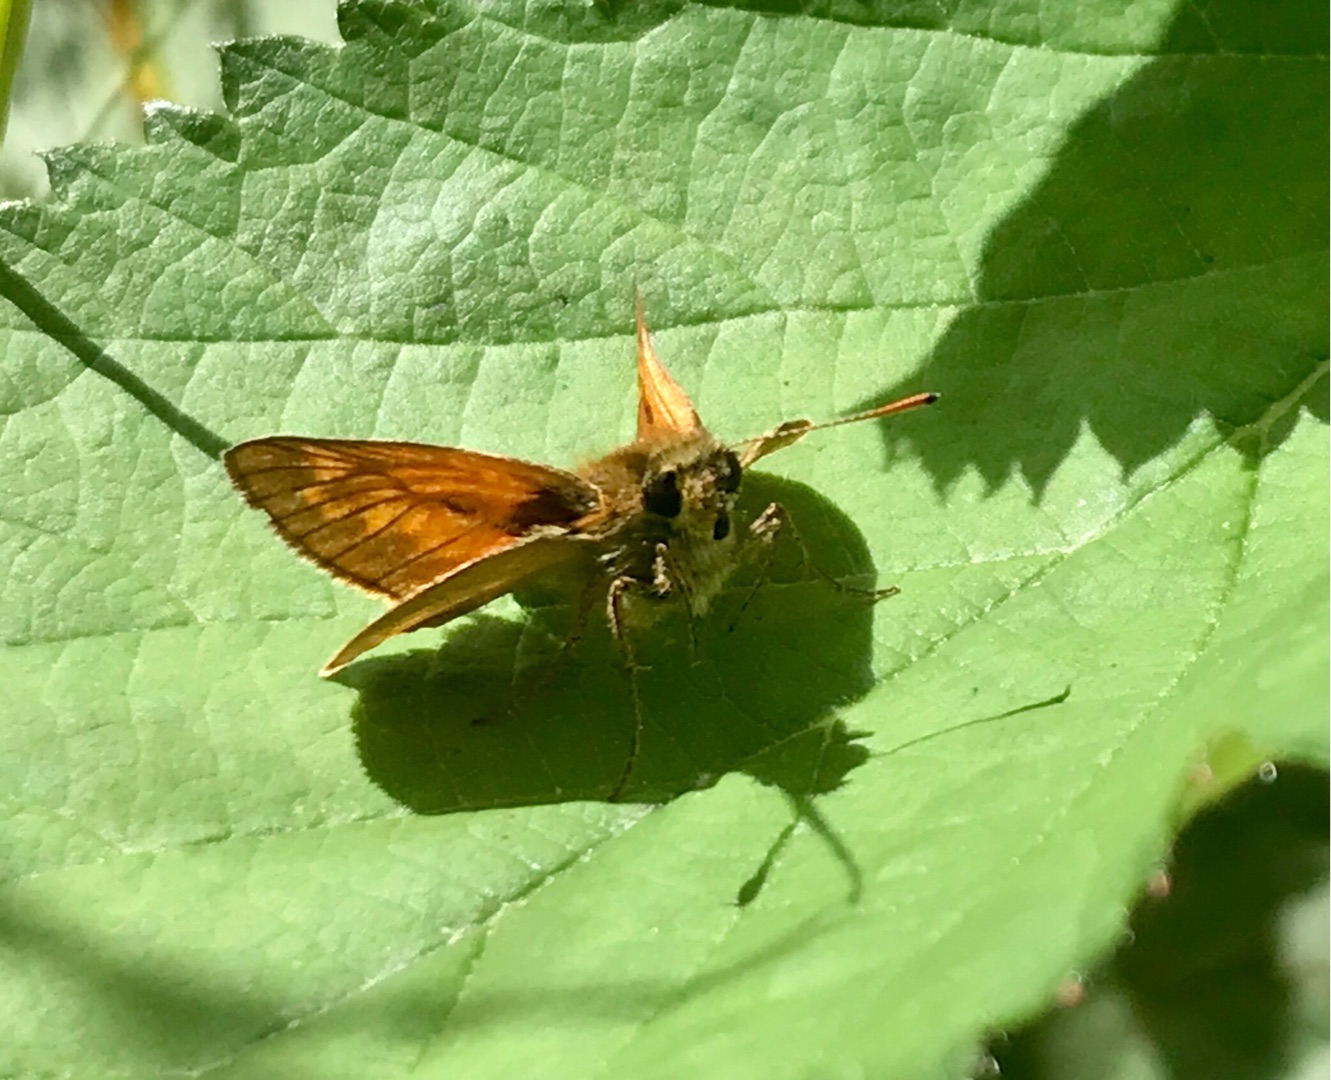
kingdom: Animalia
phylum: Arthropoda
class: Insecta
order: Lepidoptera
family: Hesperiidae
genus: Ochlodes
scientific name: Ochlodes venata
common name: Stor bredpande
